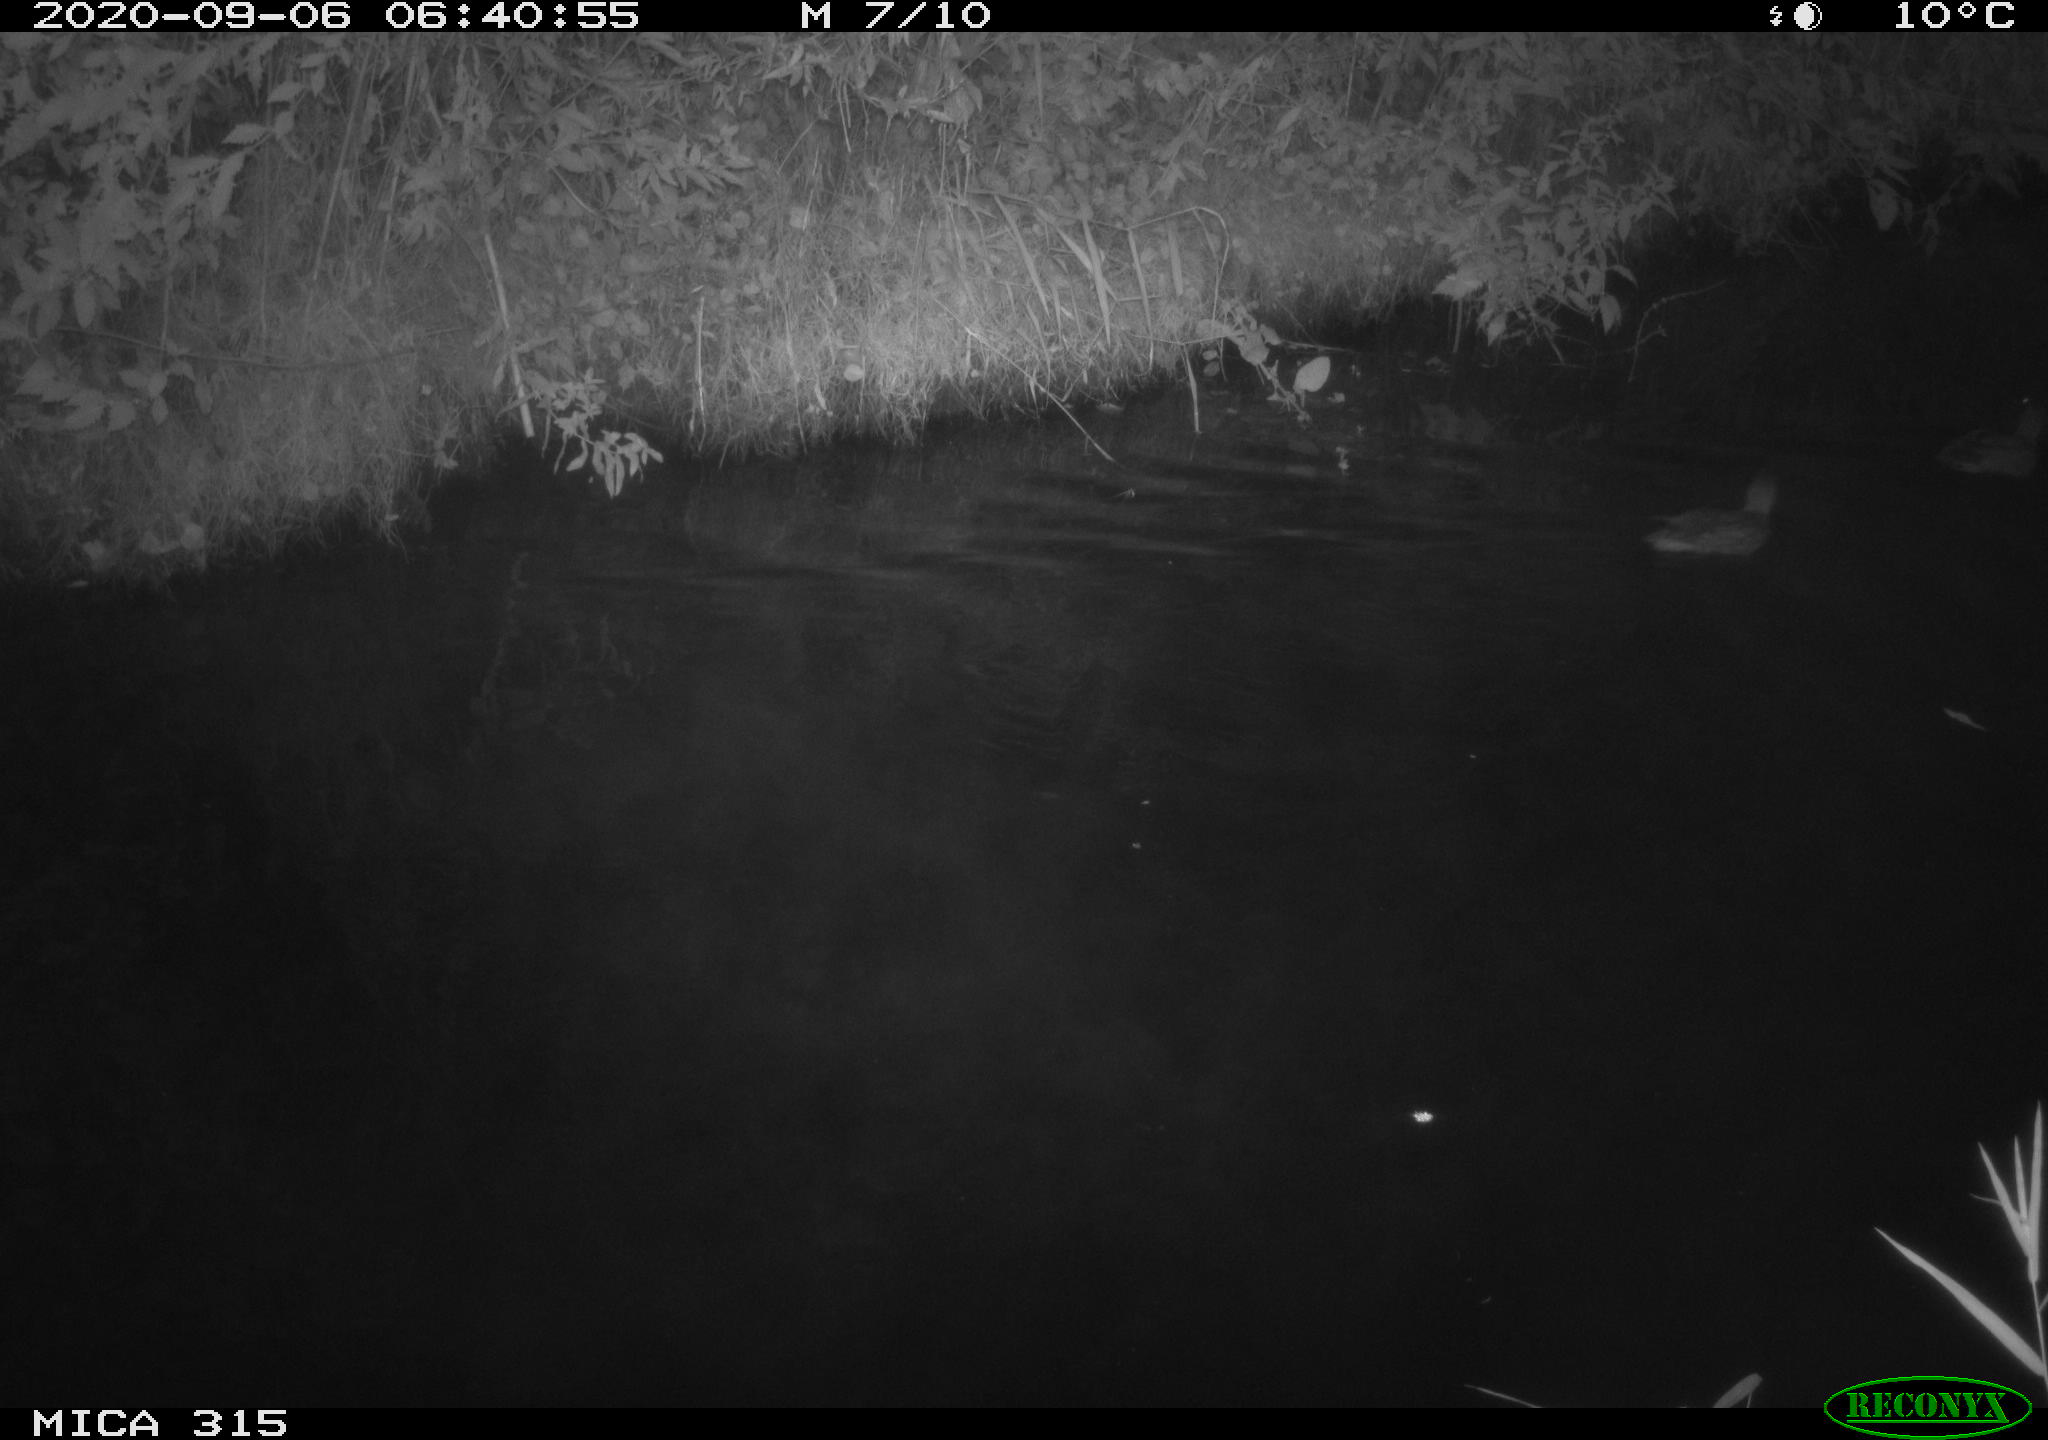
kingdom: Animalia
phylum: Chordata
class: Aves
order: Anseriformes
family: Anatidae
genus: Anas
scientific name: Anas platyrhynchos
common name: Mallard
